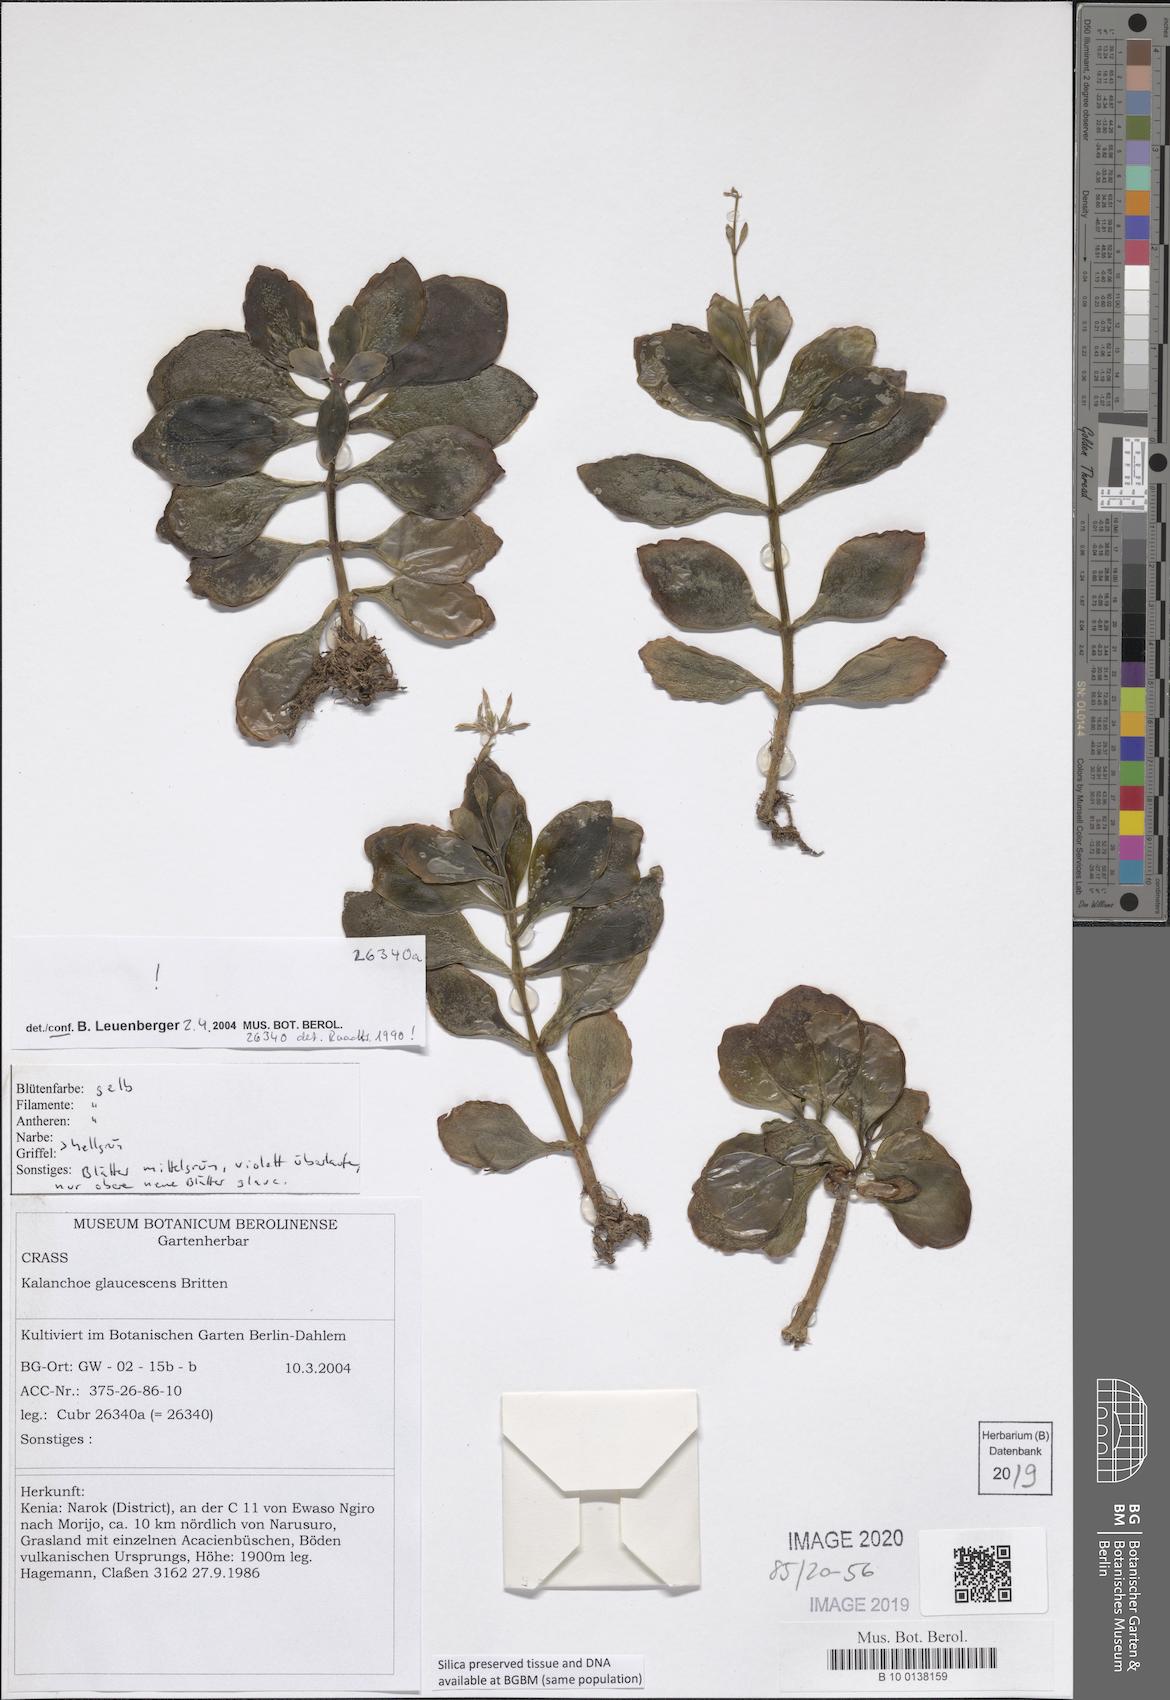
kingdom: Plantae
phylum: Tracheophyta
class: Magnoliopsida
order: Saxifragales
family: Crassulaceae
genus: Kalanchoe
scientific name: Kalanchoe glaucescens
